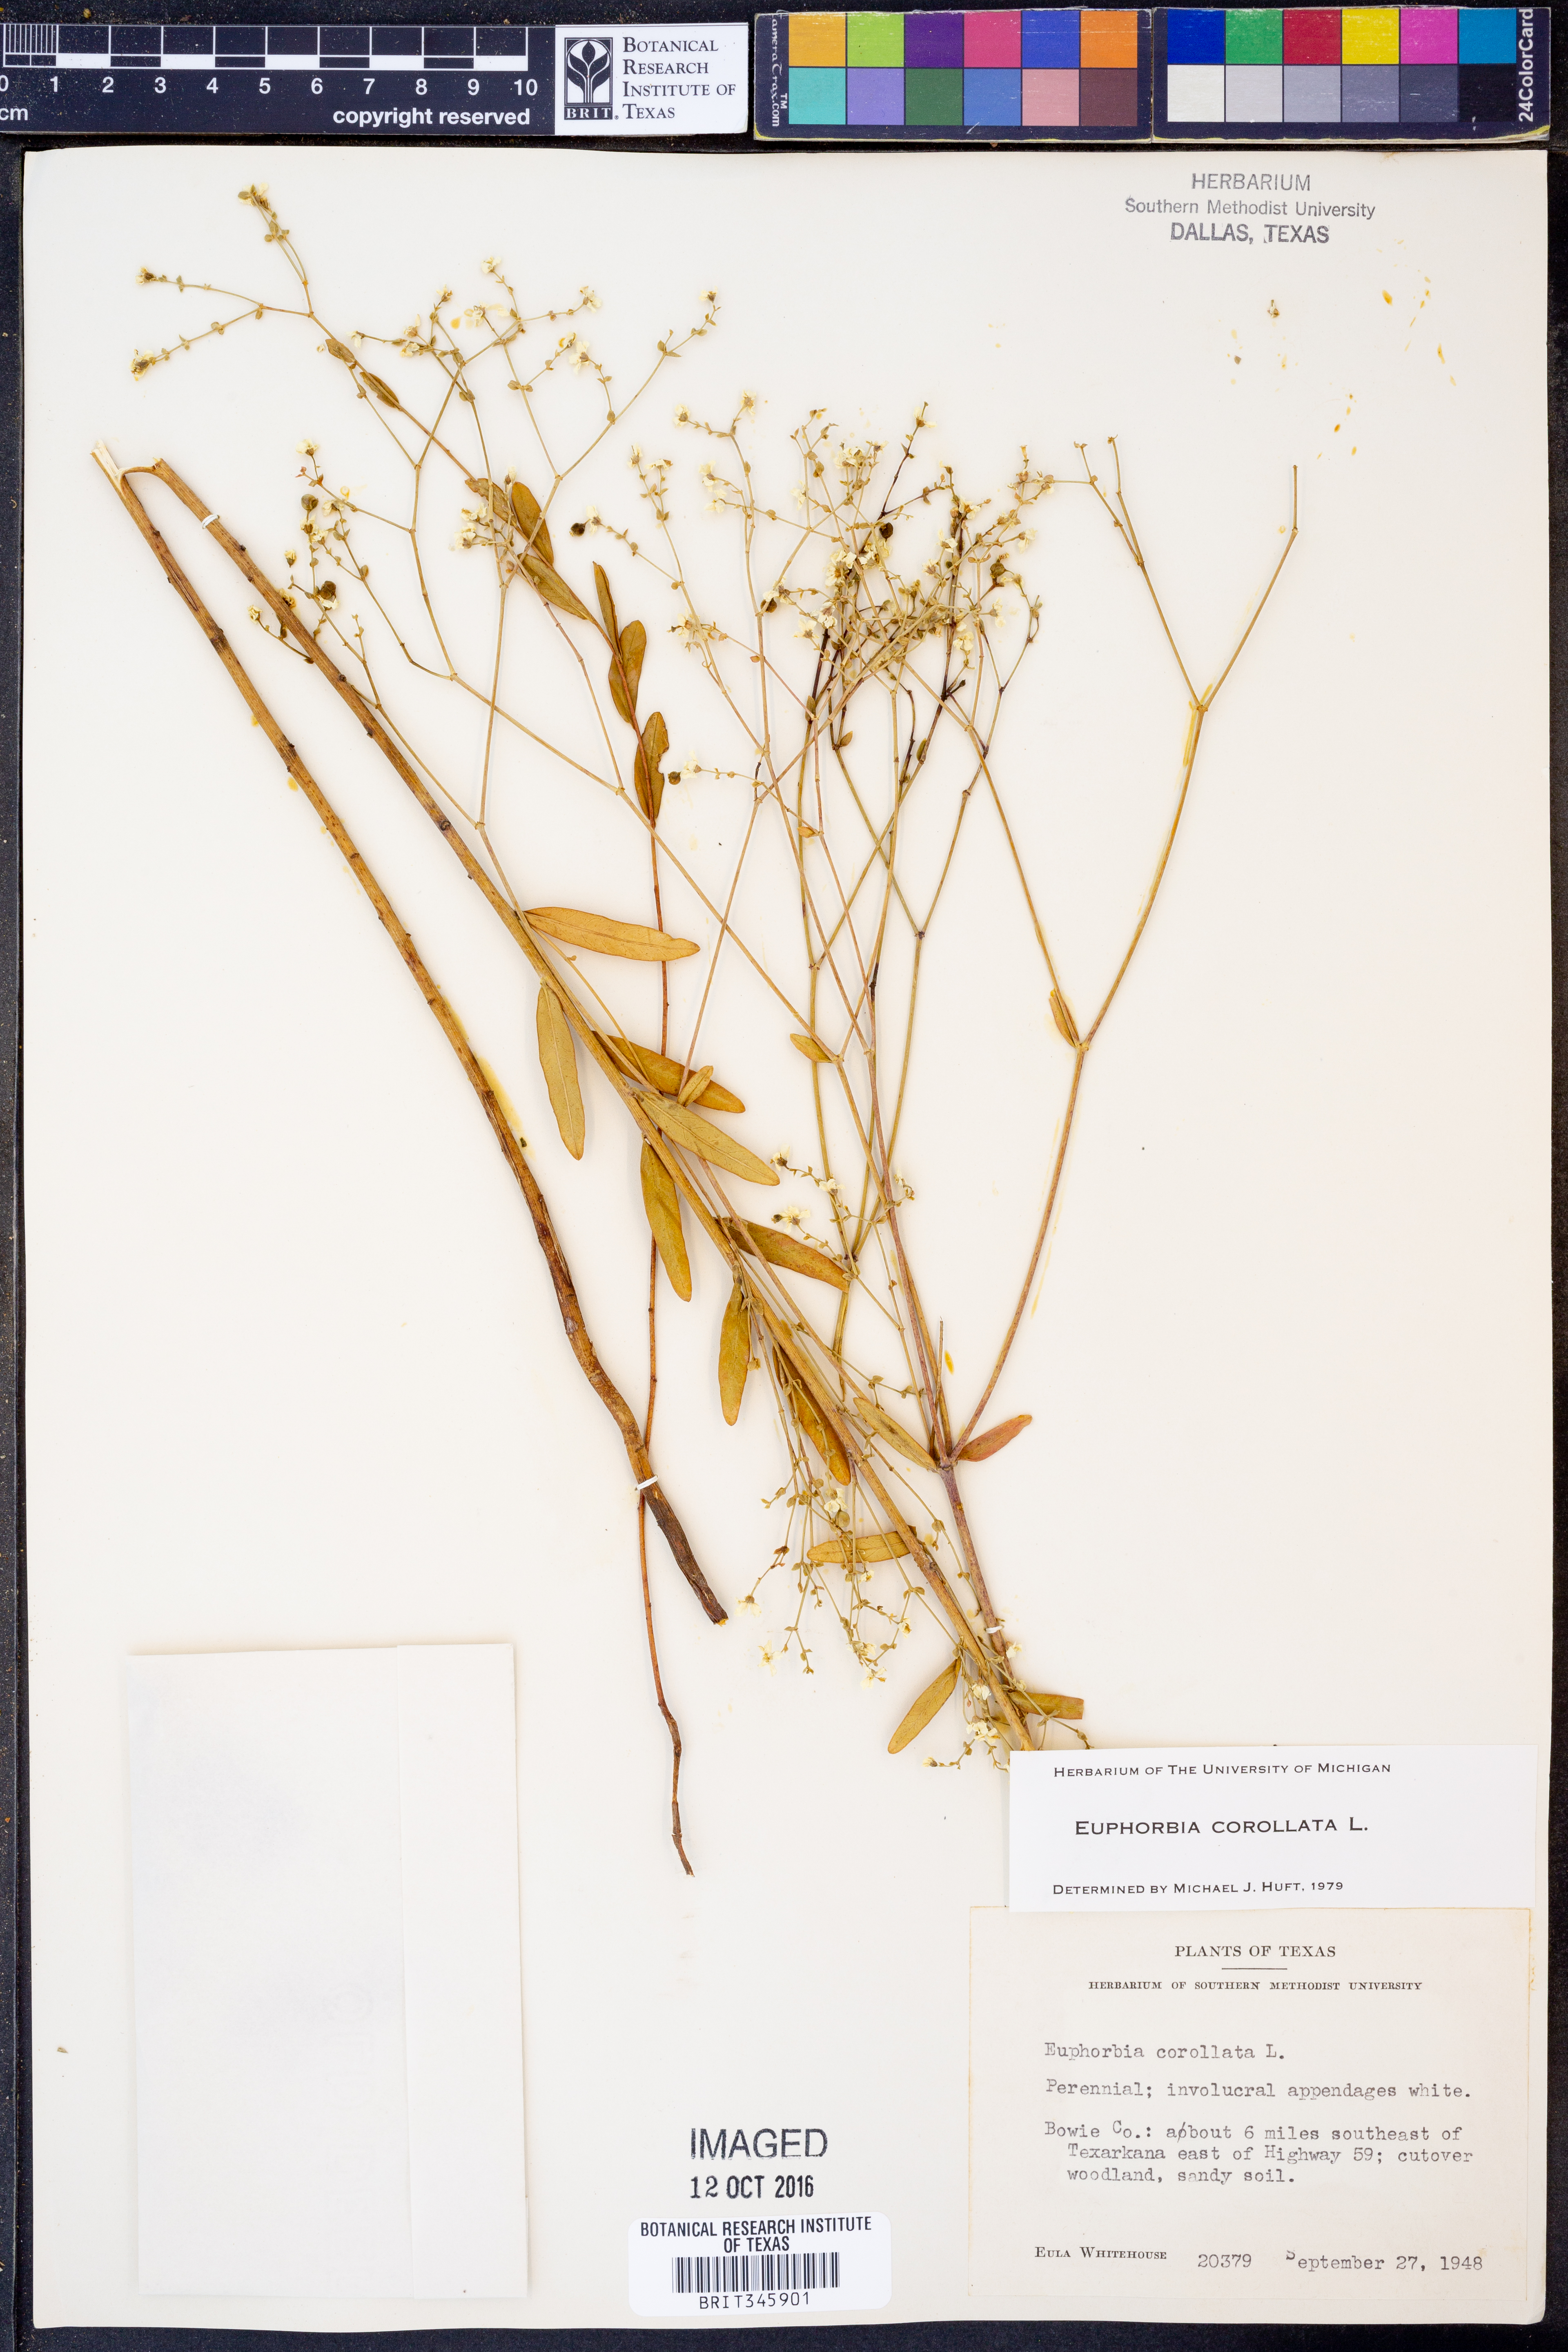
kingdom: Plantae
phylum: Tracheophyta
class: Magnoliopsida
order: Malpighiales
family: Euphorbiaceae
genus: Euphorbia
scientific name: Euphorbia corollata
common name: Flowering spurge
